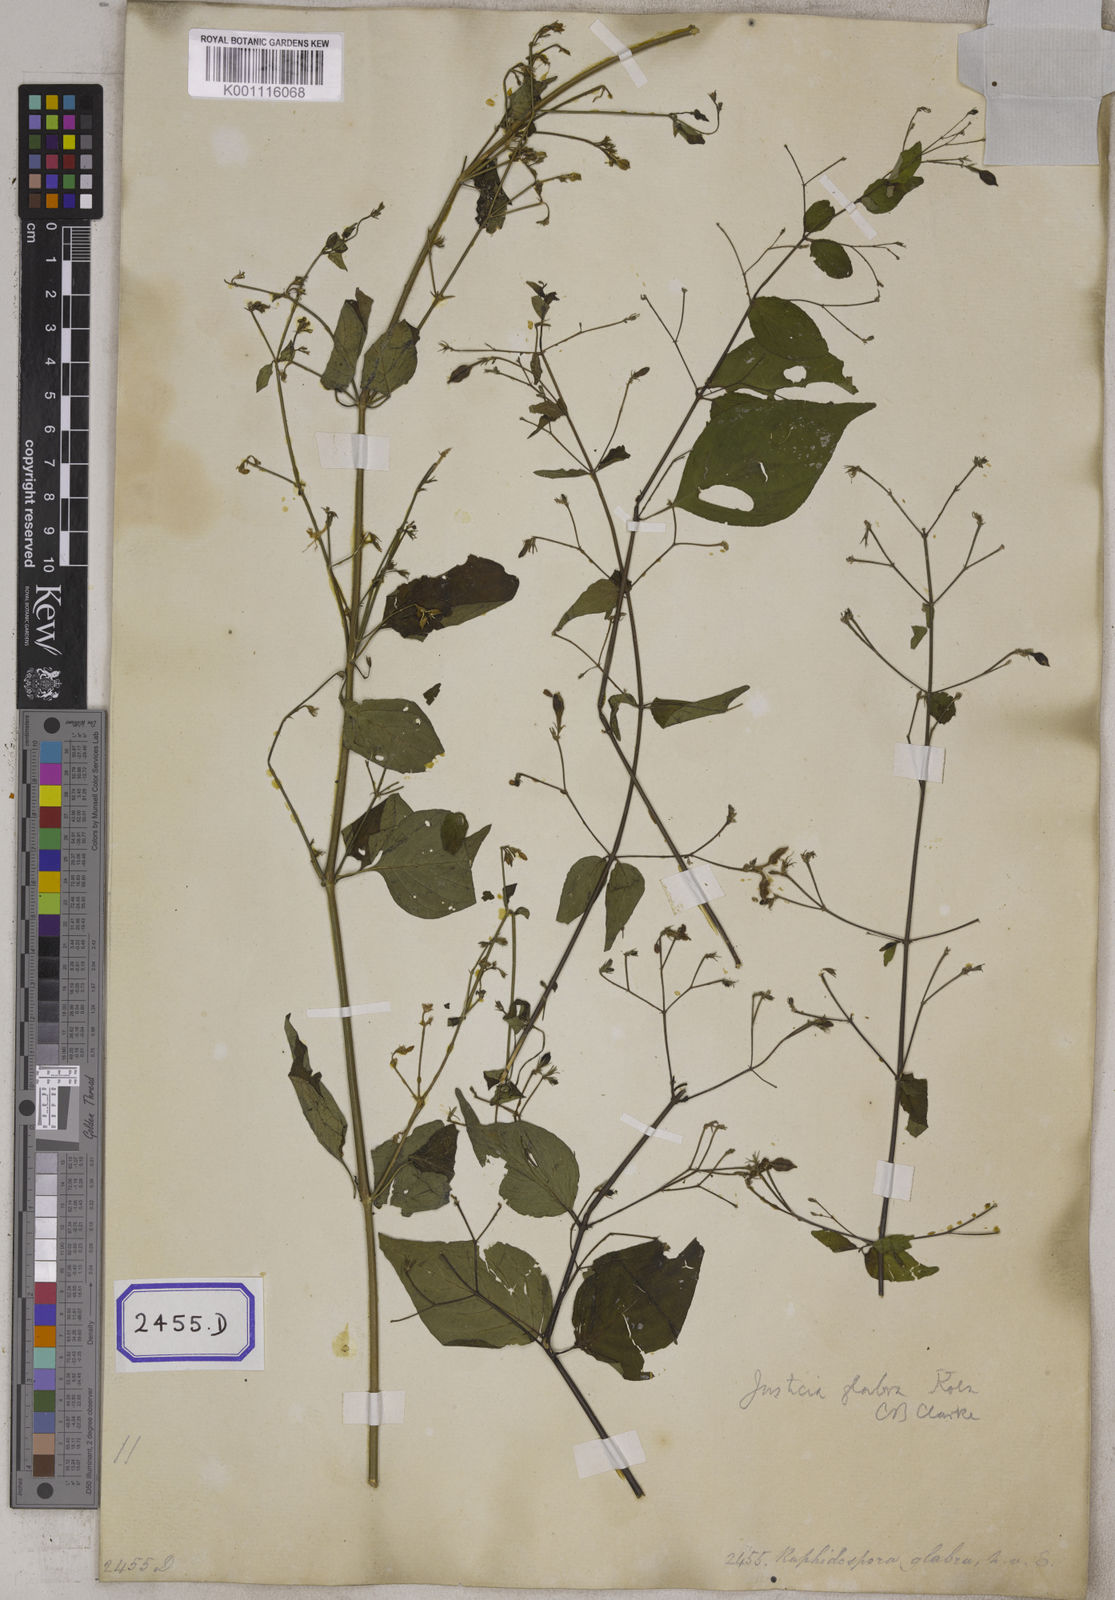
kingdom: Plantae
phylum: Tracheophyta
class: Magnoliopsida
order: Lamiales
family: Acanthaceae
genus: Justicia
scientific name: Justicia
